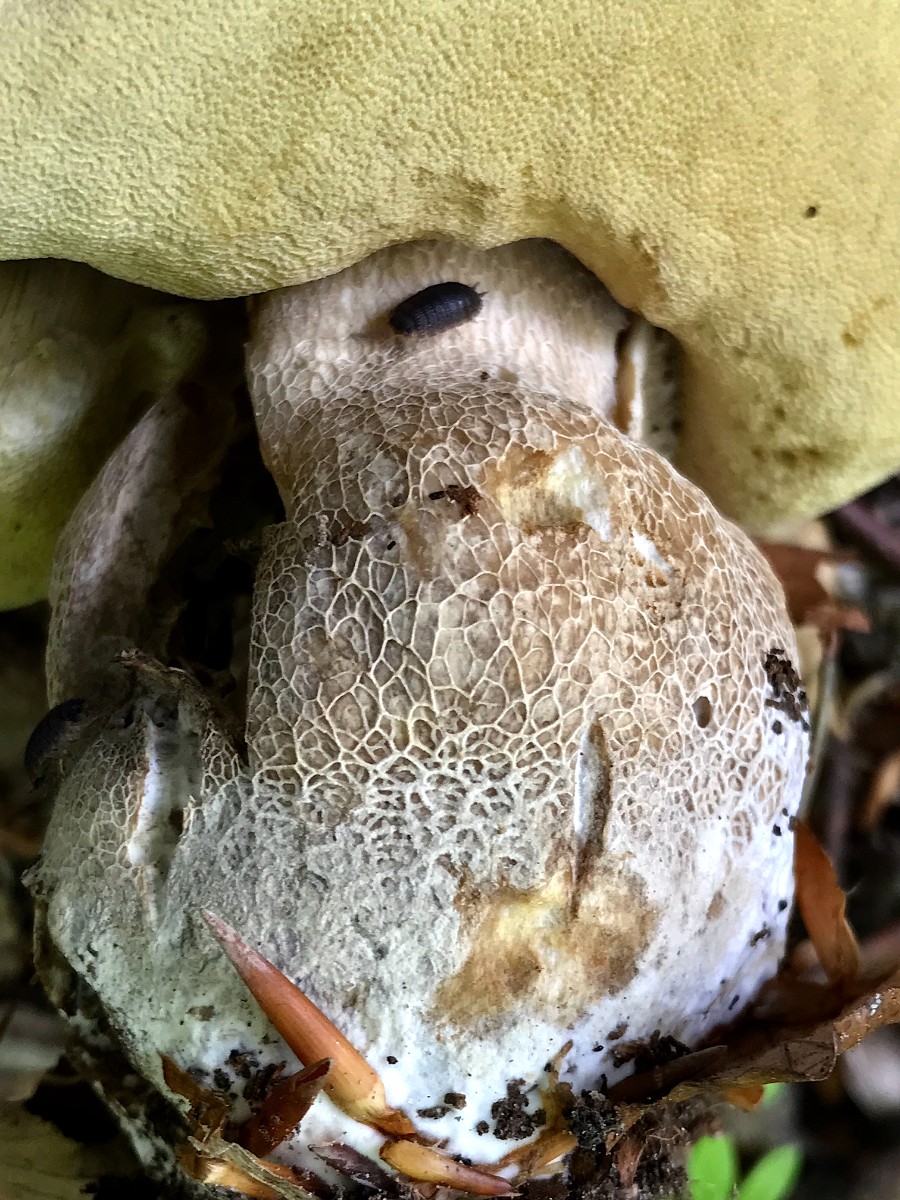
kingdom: Fungi
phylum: Basidiomycota
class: Agaricomycetes
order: Boletales
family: Boletaceae
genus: Boletus
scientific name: Boletus reticulatus
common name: sommer-rørhat
